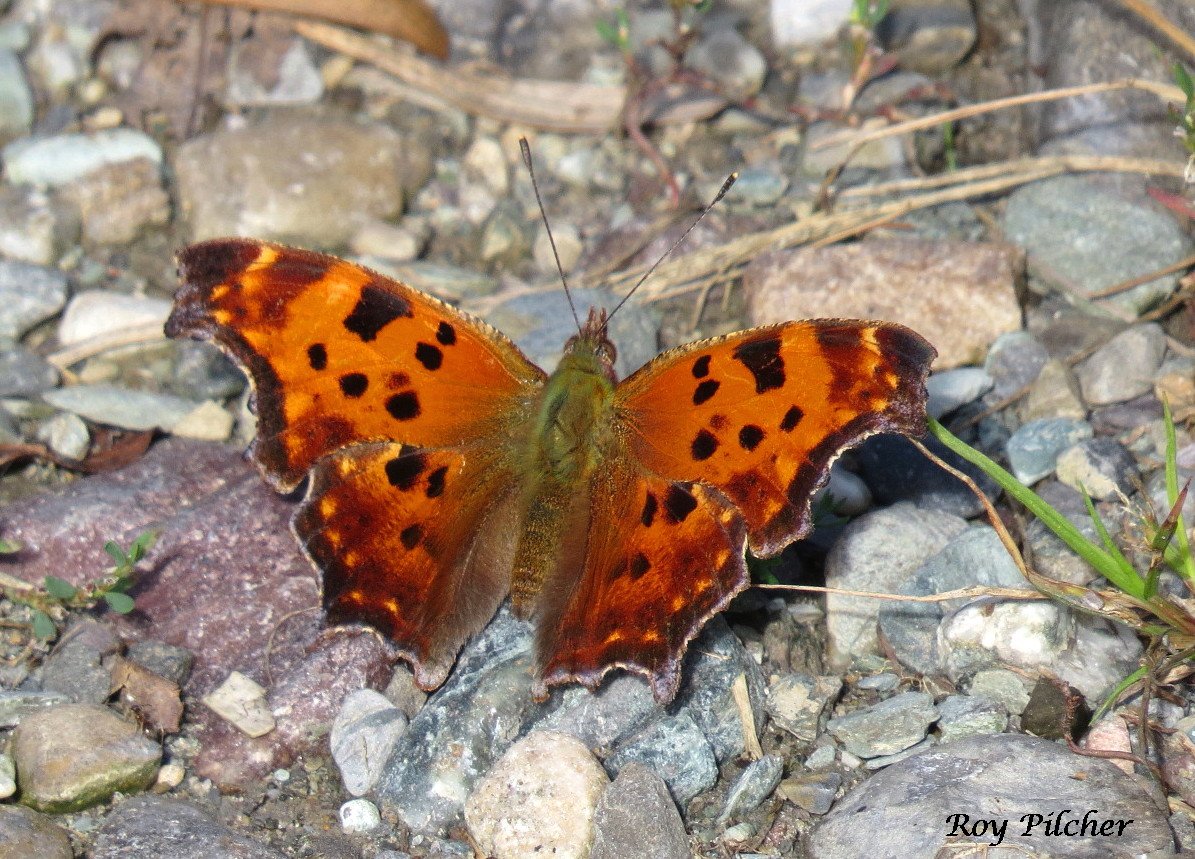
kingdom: Animalia
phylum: Arthropoda
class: Insecta
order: Lepidoptera
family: Nymphalidae
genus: Polygonia
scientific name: Polygonia comma
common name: Eastern Comma
